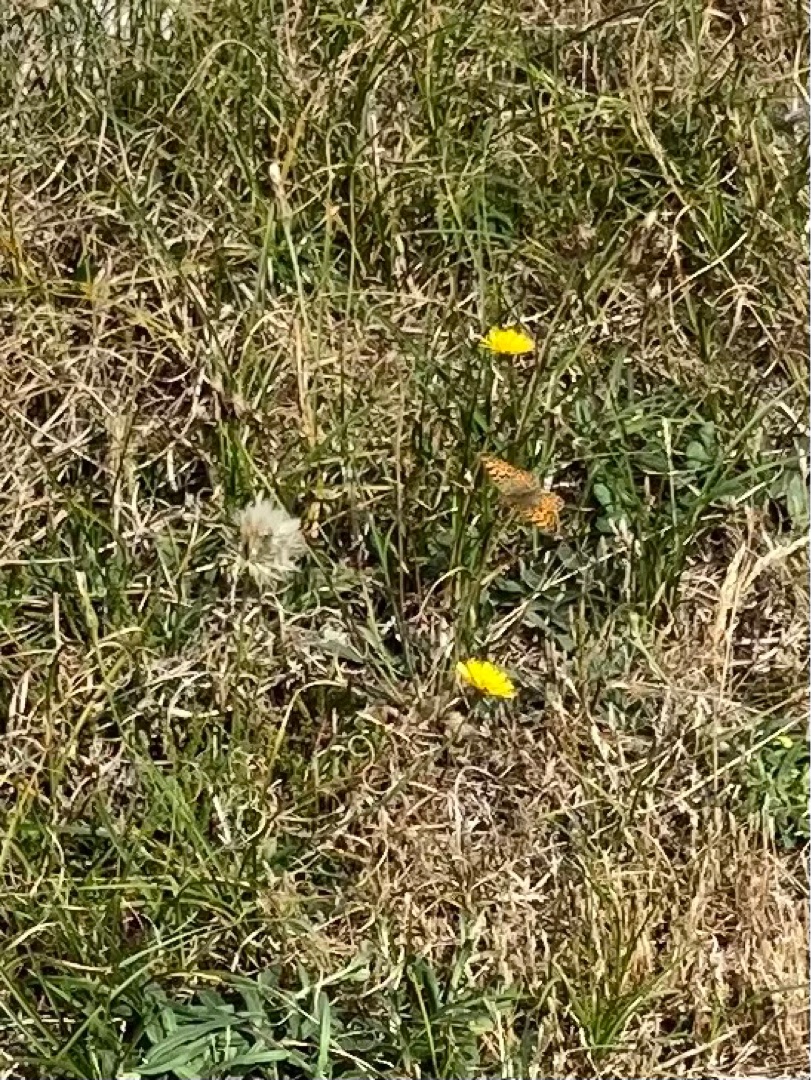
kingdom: Animalia
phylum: Arthropoda
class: Insecta
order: Lepidoptera
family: Nymphalidae
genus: Issoria
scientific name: Issoria lathonia
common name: Storplettet perlemorsommerfugl
